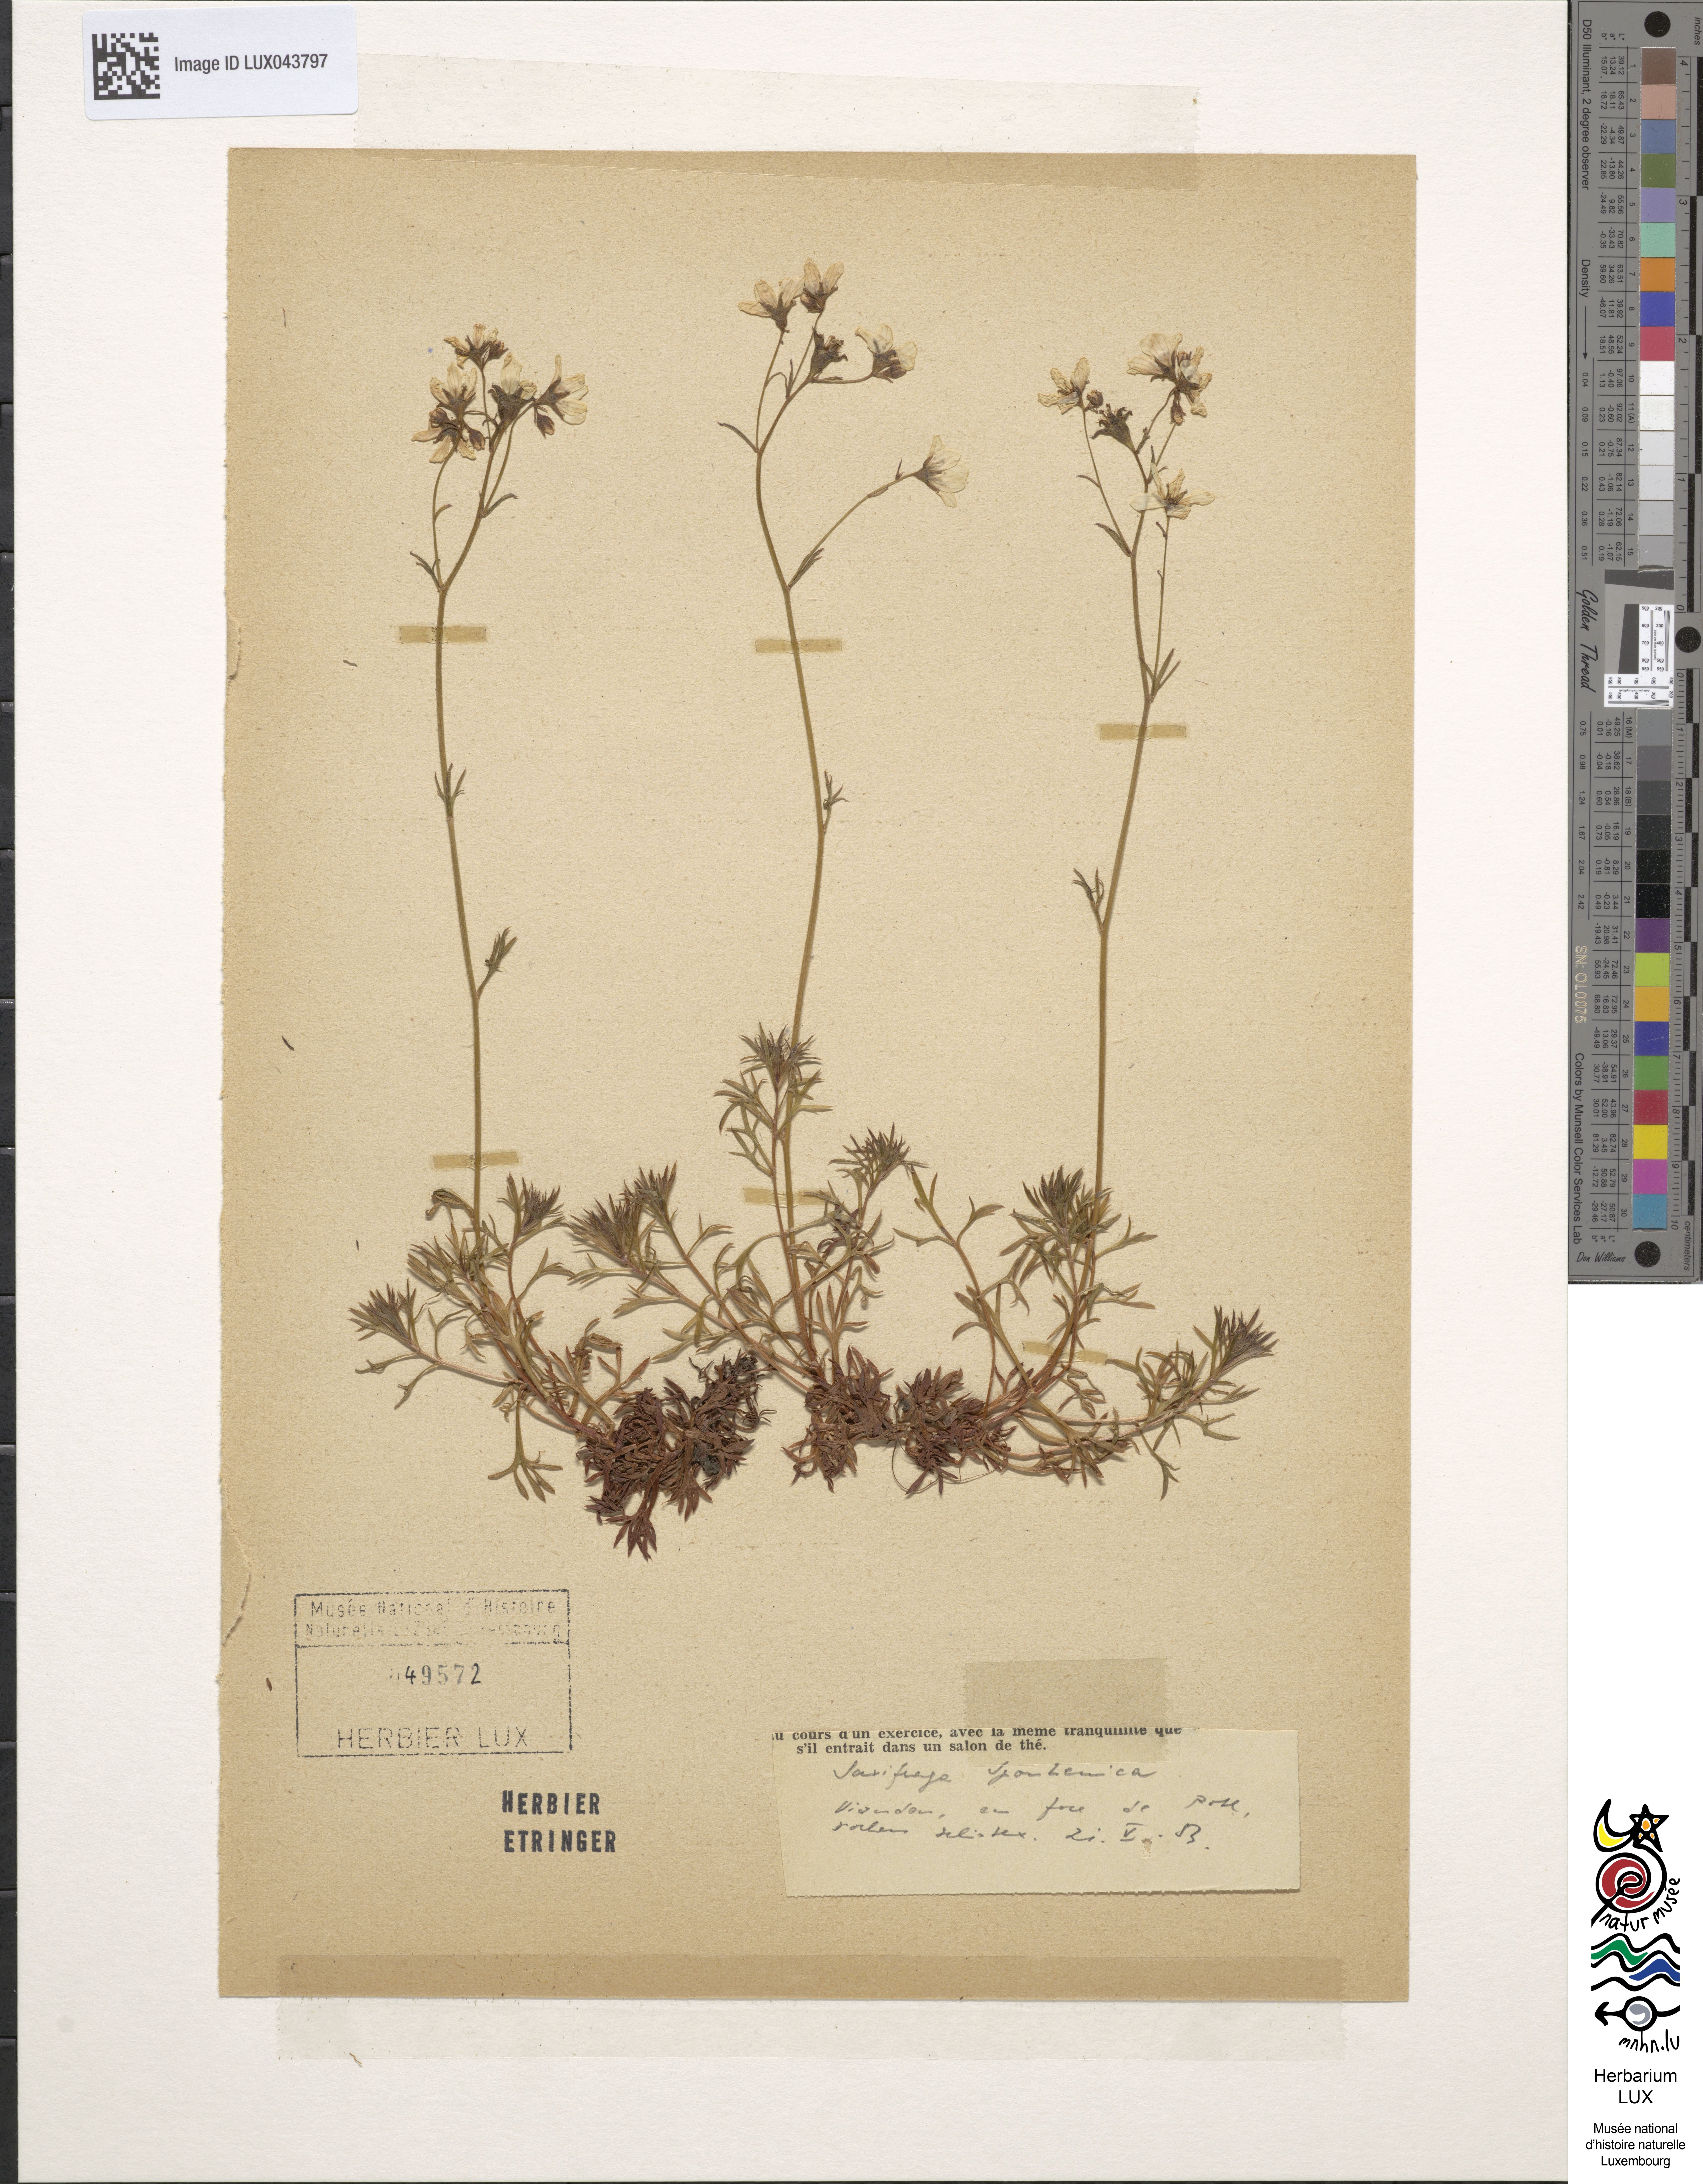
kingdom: Plantae
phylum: Tracheophyta
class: Magnoliopsida
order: Saxifragales
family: Saxifragaceae
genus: Saxifraga
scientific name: Saxifraga rosacea
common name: Irish saxifrage
